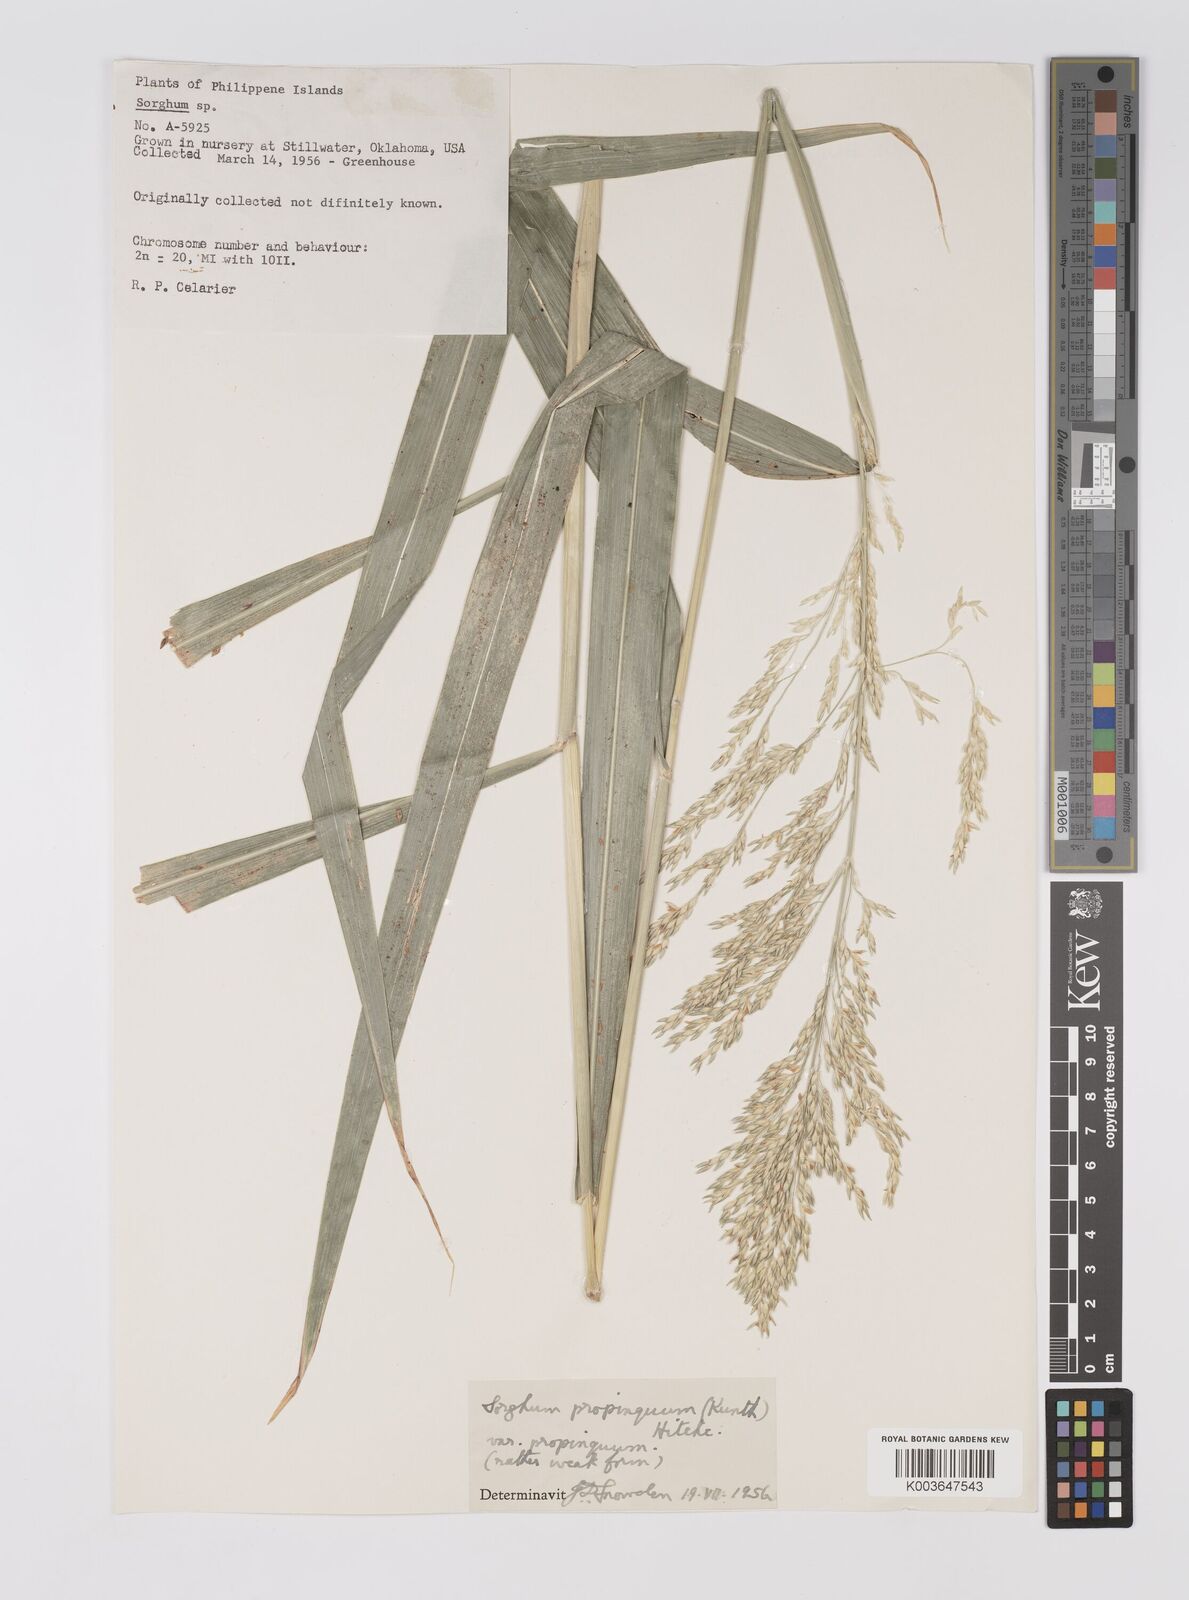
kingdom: Plantae
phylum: Tracheophyta
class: Liliopsida
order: Poales
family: Poaceae
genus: Sorghum
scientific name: Sorghum propinquum
